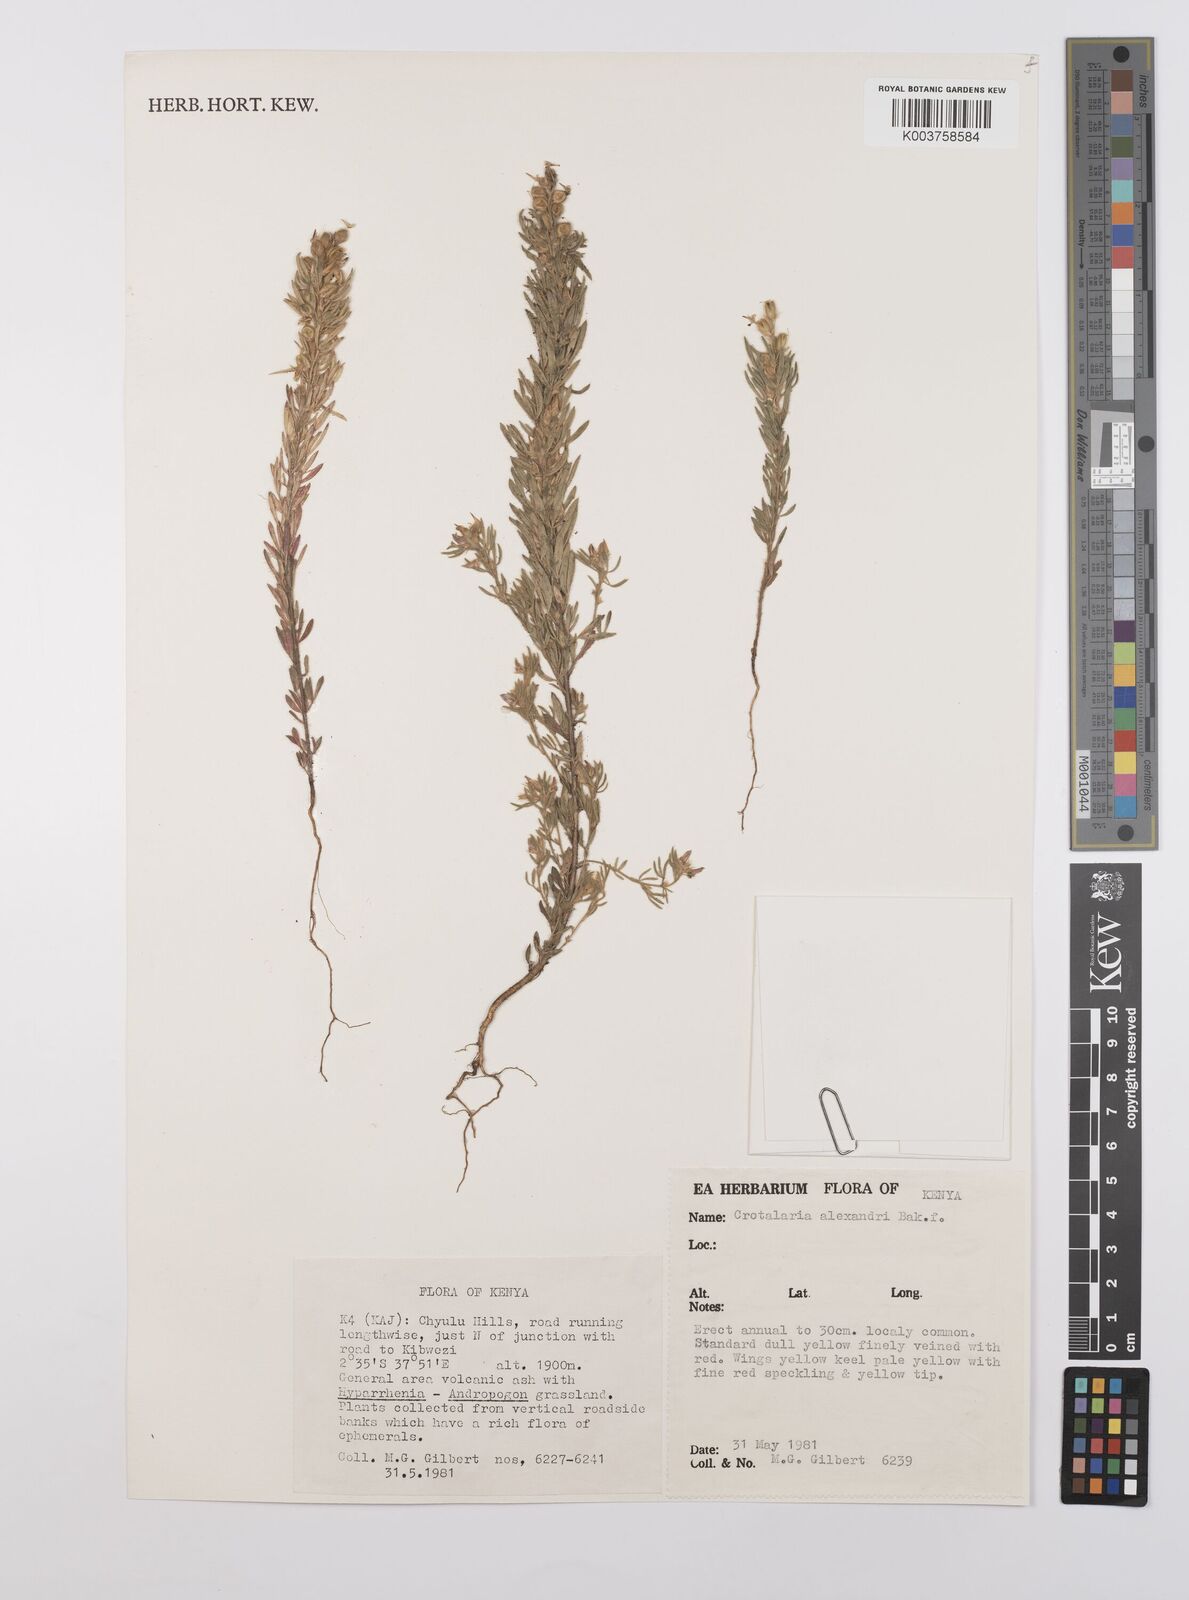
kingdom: Plantae
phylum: Tracheophyta
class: Magnoliopsida
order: Fabales
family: Fabaceae
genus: Crotalaria
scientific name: Crotalaria alexandri
